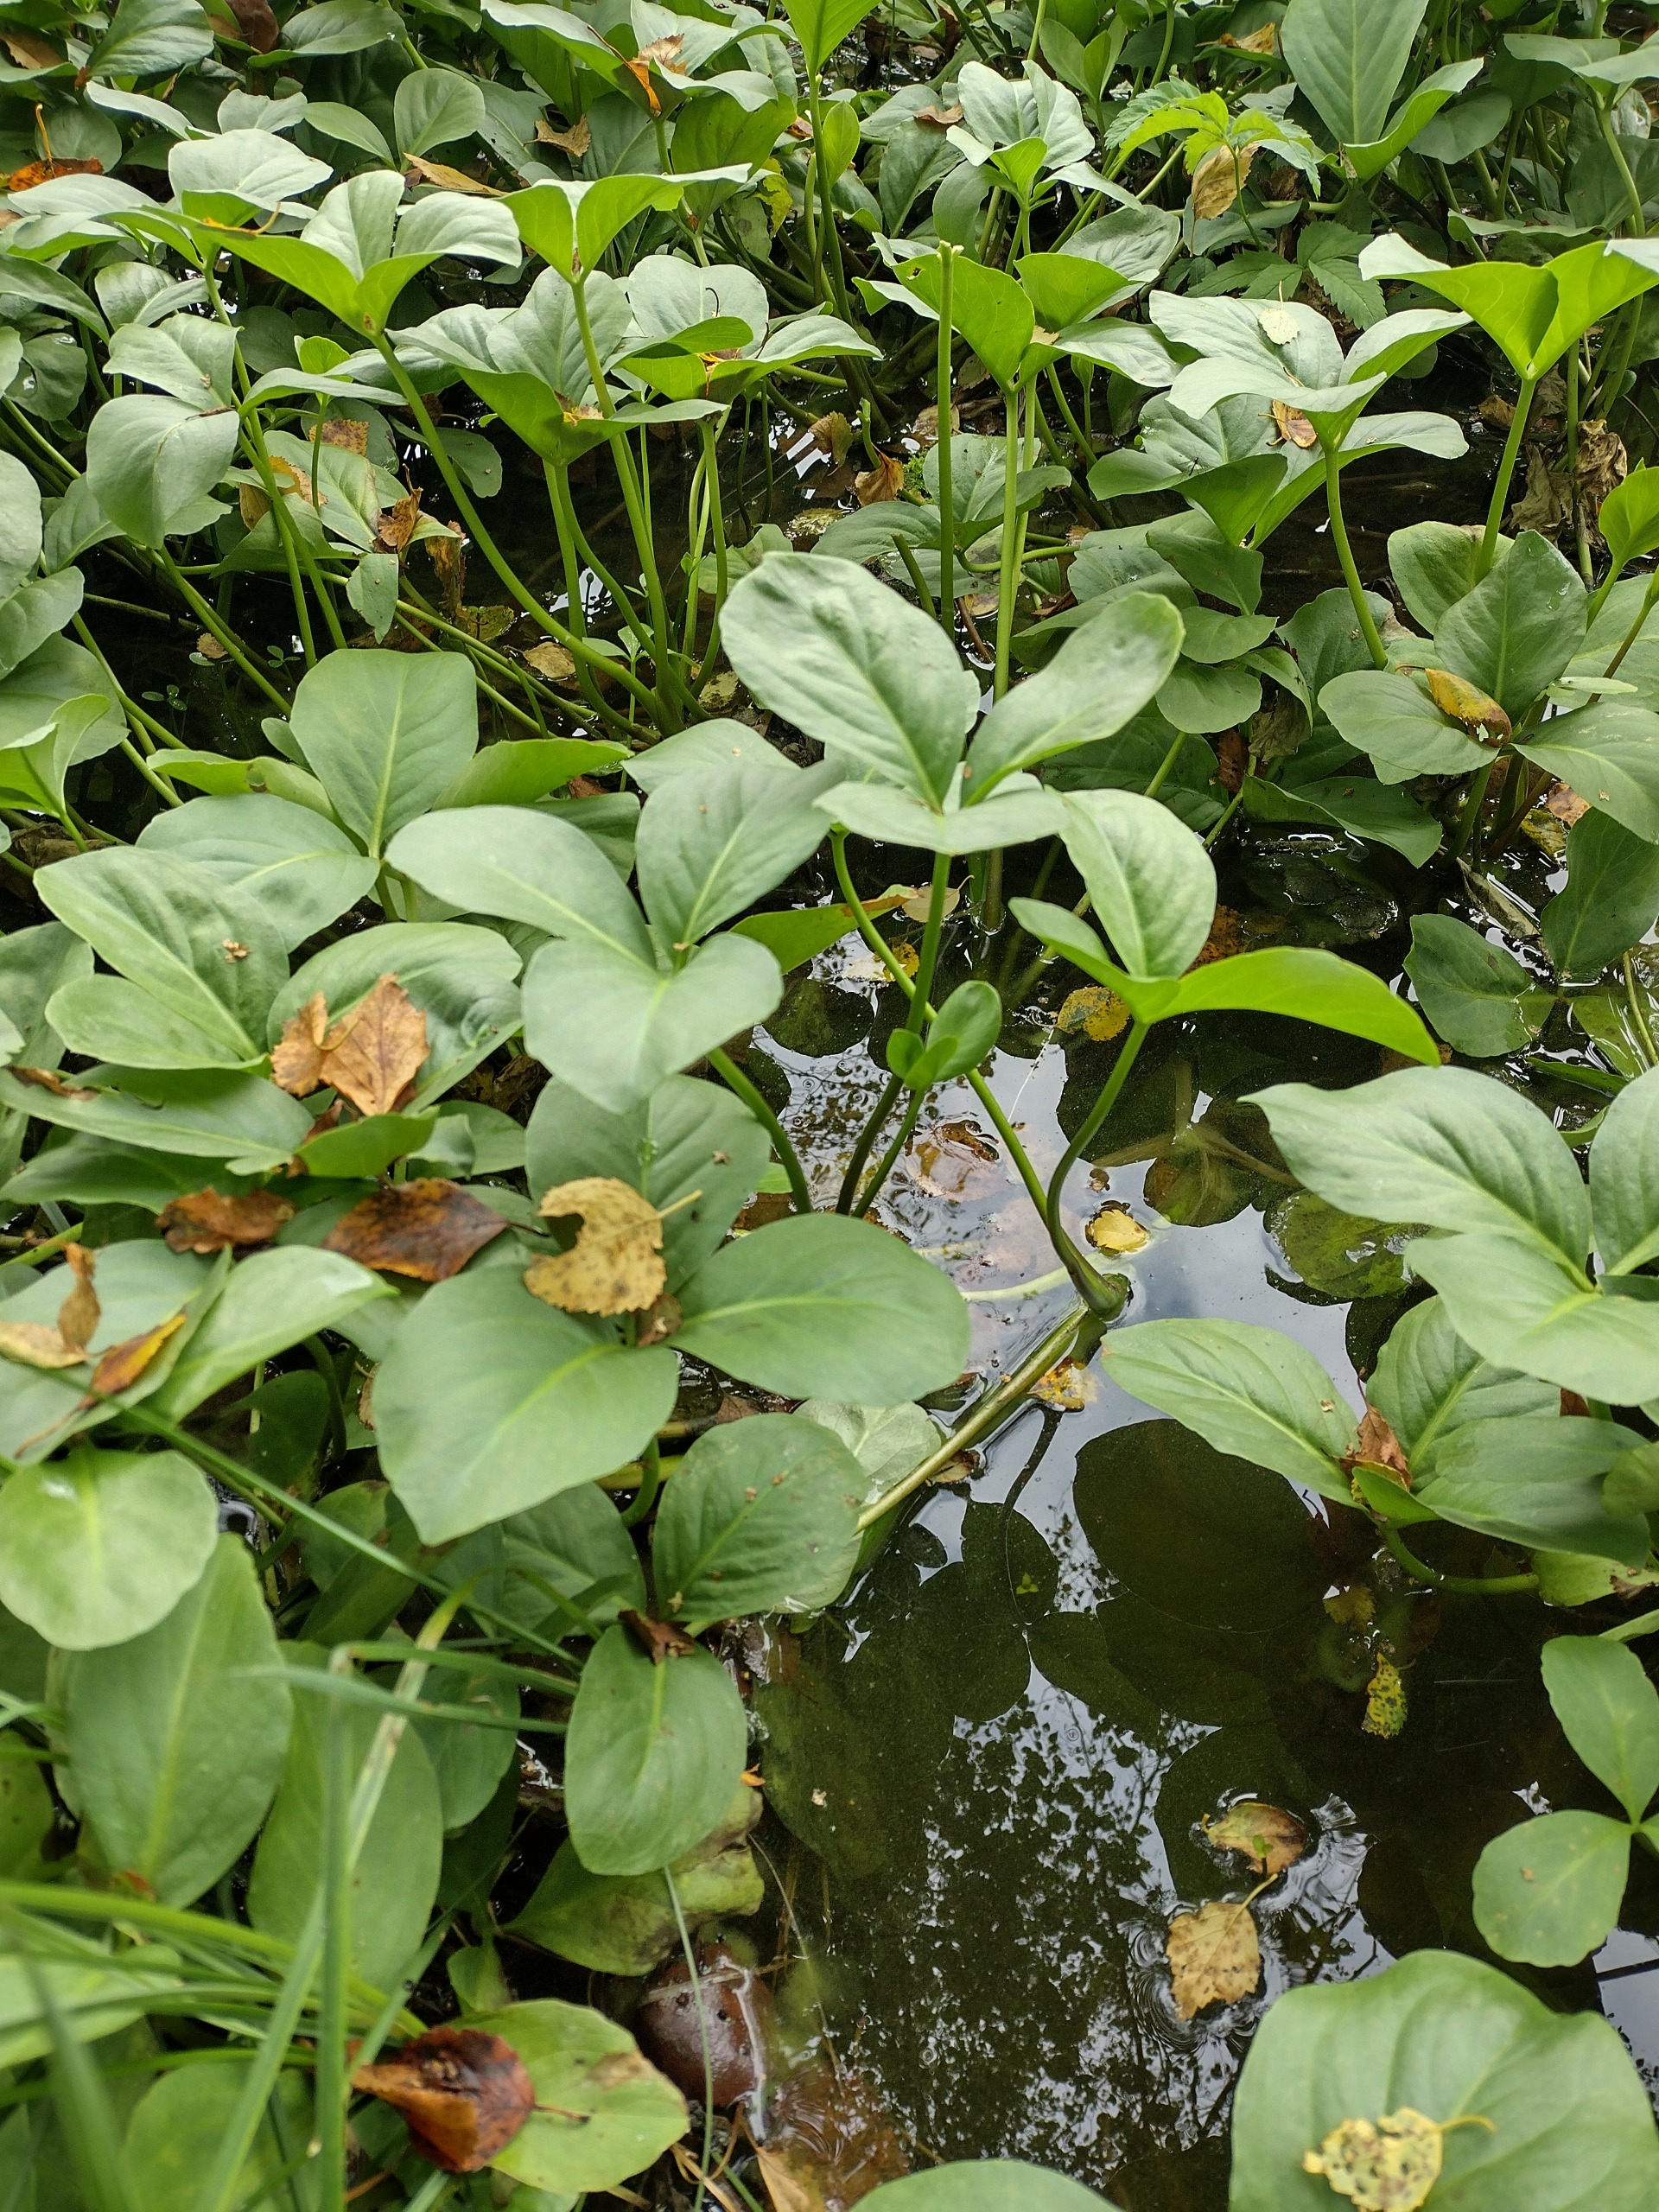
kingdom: Plantae
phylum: Tracheophyta
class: Magnoliopsida
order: Asterales
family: Menyanthaceae
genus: Menyanthes
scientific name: Menyanthes trifoliata
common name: Bukkeblad
